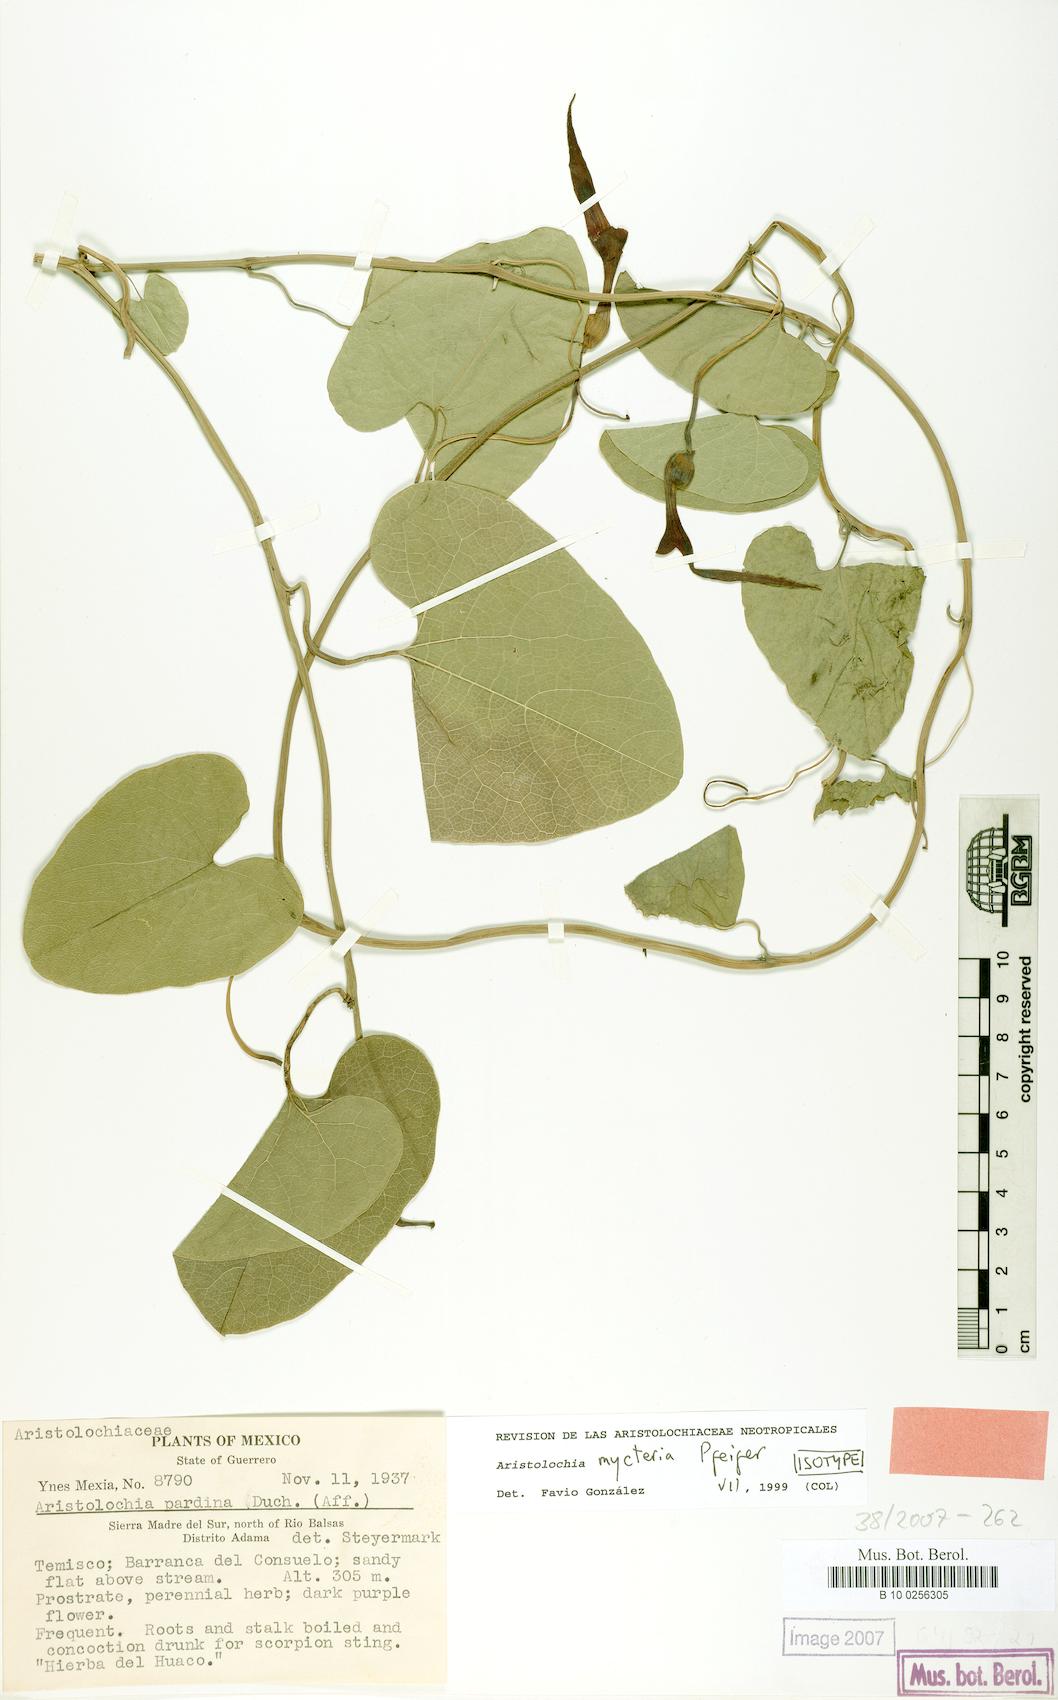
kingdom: Plantae
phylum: Tracheophyta
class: Magnoliopsida
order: Piperales
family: Aristolochiaceae
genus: Aristolochia
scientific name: Aristolochia mycteria
